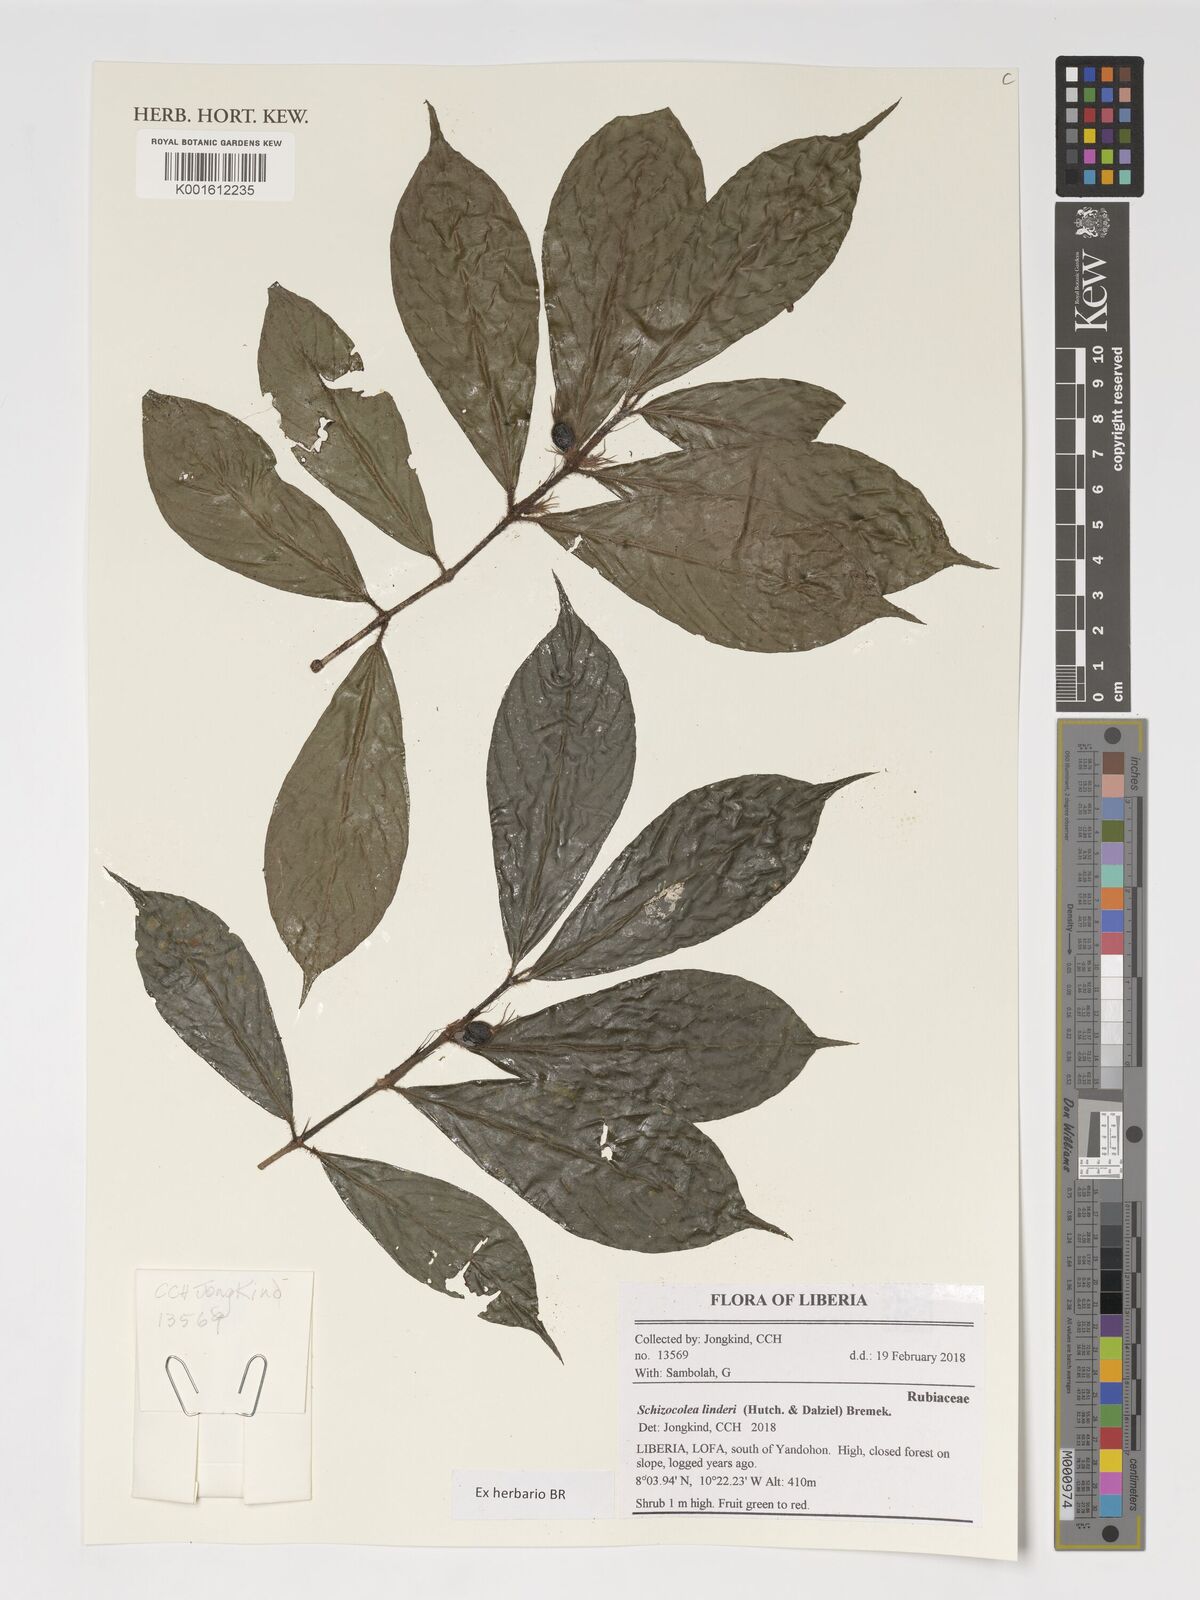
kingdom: Plantae
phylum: Tracheophyta
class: Magnoliopsida
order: Gentianales
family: Rubiaceae
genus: Schizocolea
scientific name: Schizocolea linderi
